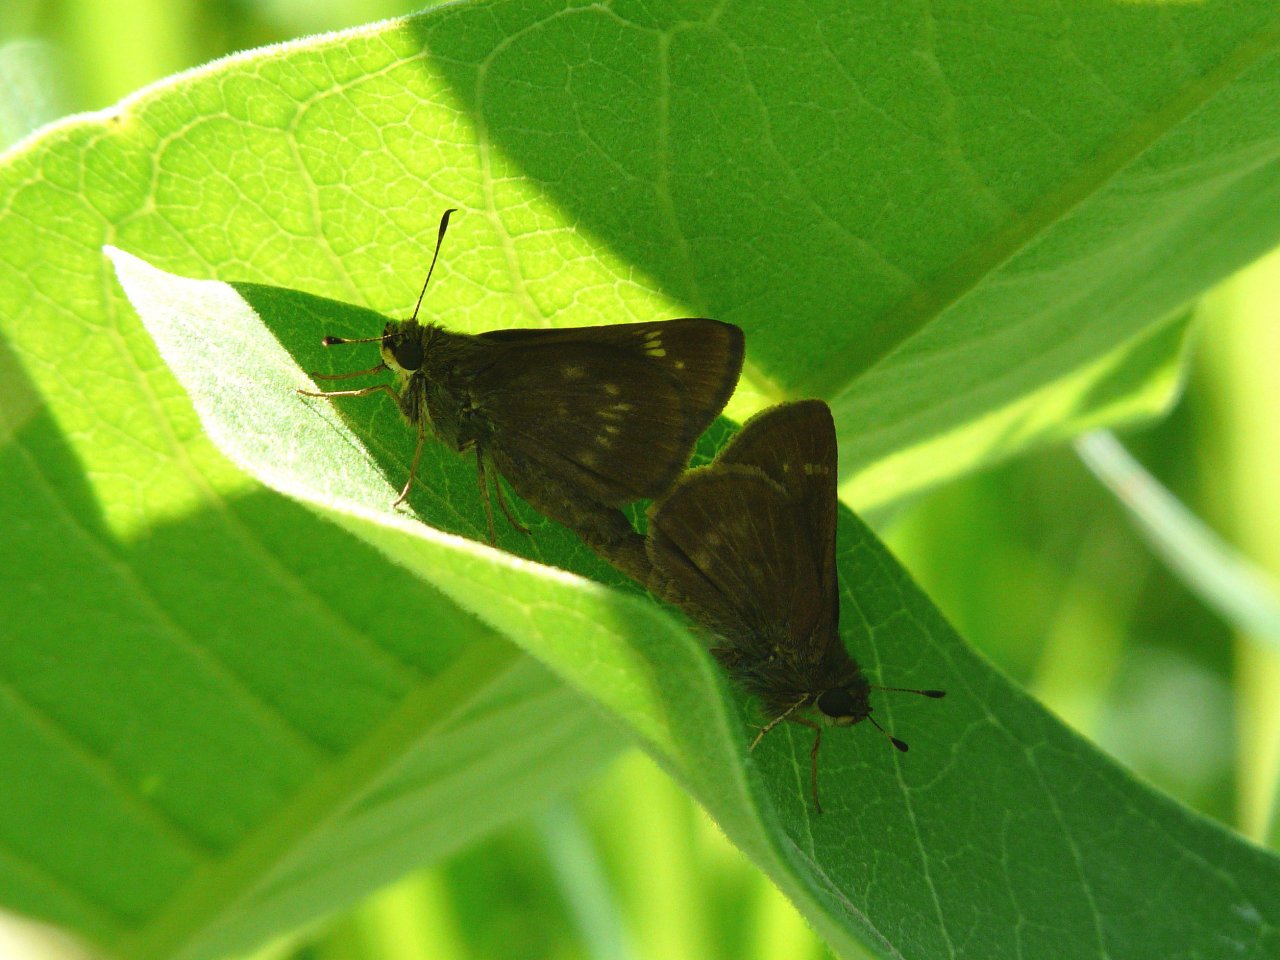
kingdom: Animalia
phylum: Arthropoda
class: Insecta
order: Lepidoptera
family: Hesperiidae
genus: Vernia
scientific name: Vernia verna
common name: Little Glassywing
